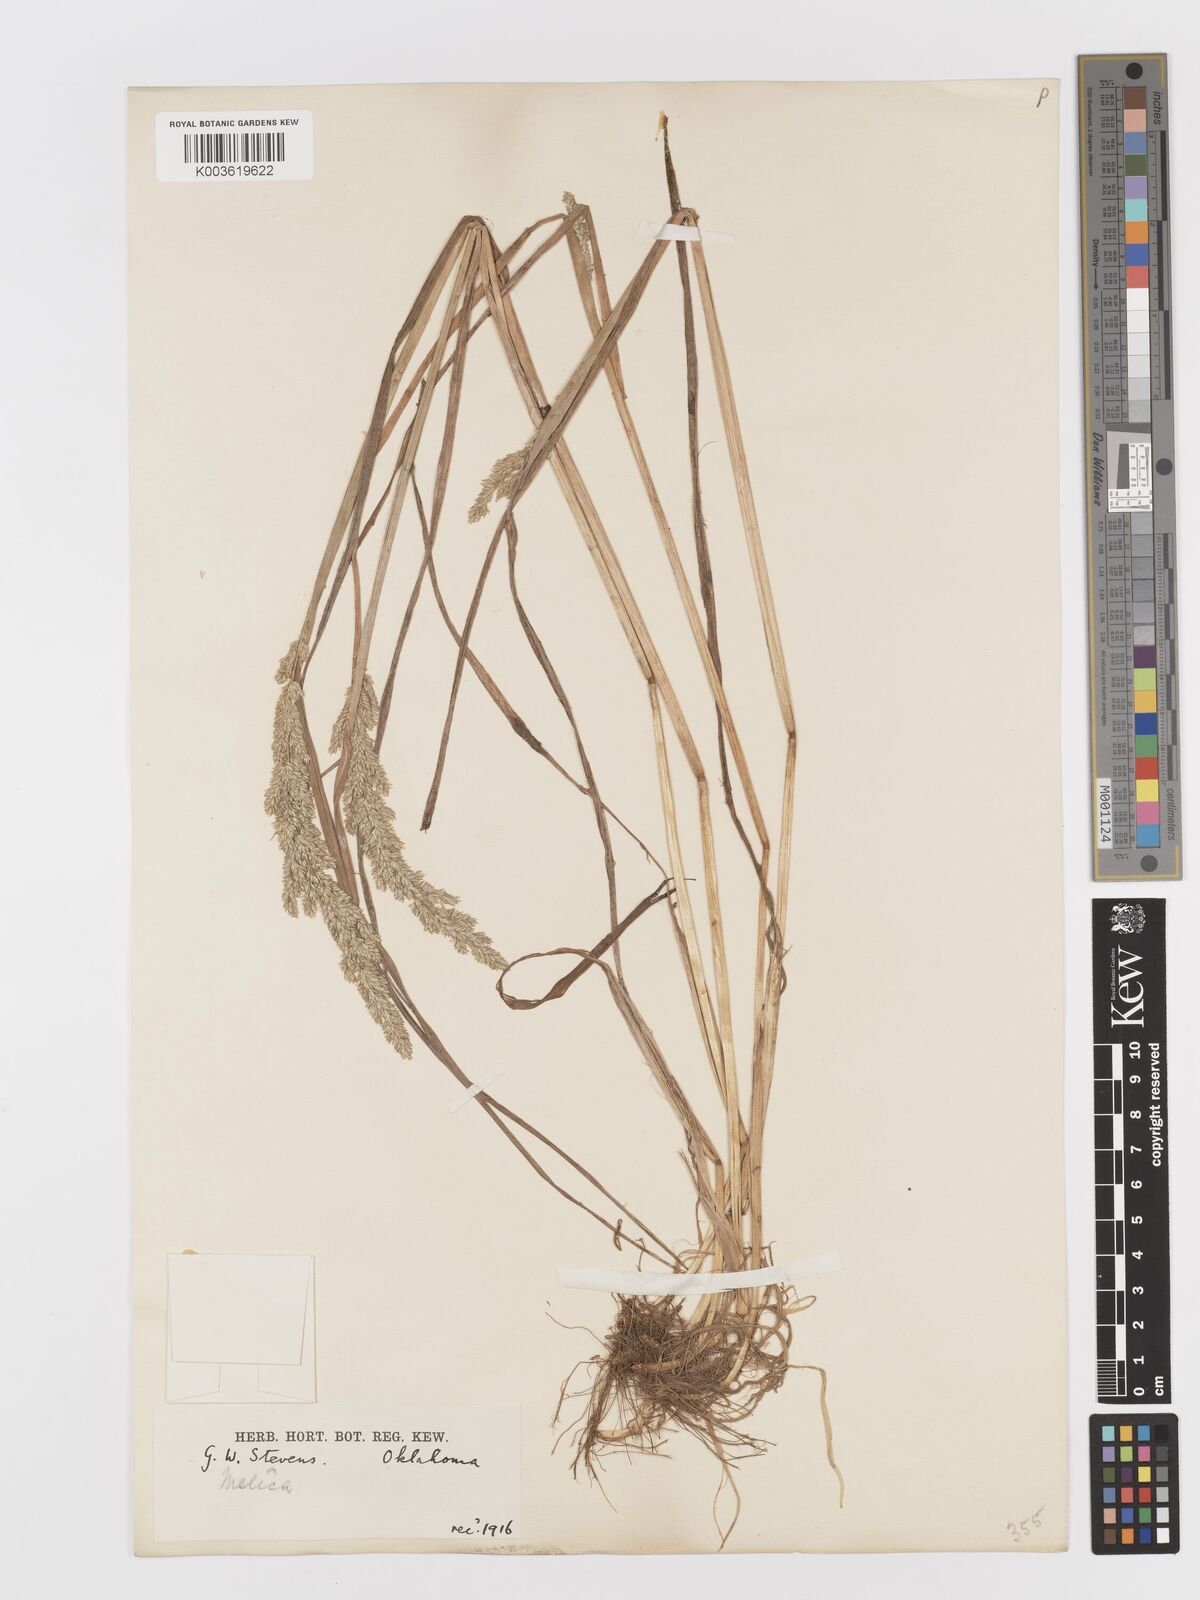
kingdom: Plantae
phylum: Tracheophyta
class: Liliopsida
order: Poales
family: Poaceae
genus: Sphenopholis
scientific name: Sphenopholis obtusata
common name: Prairie grass
